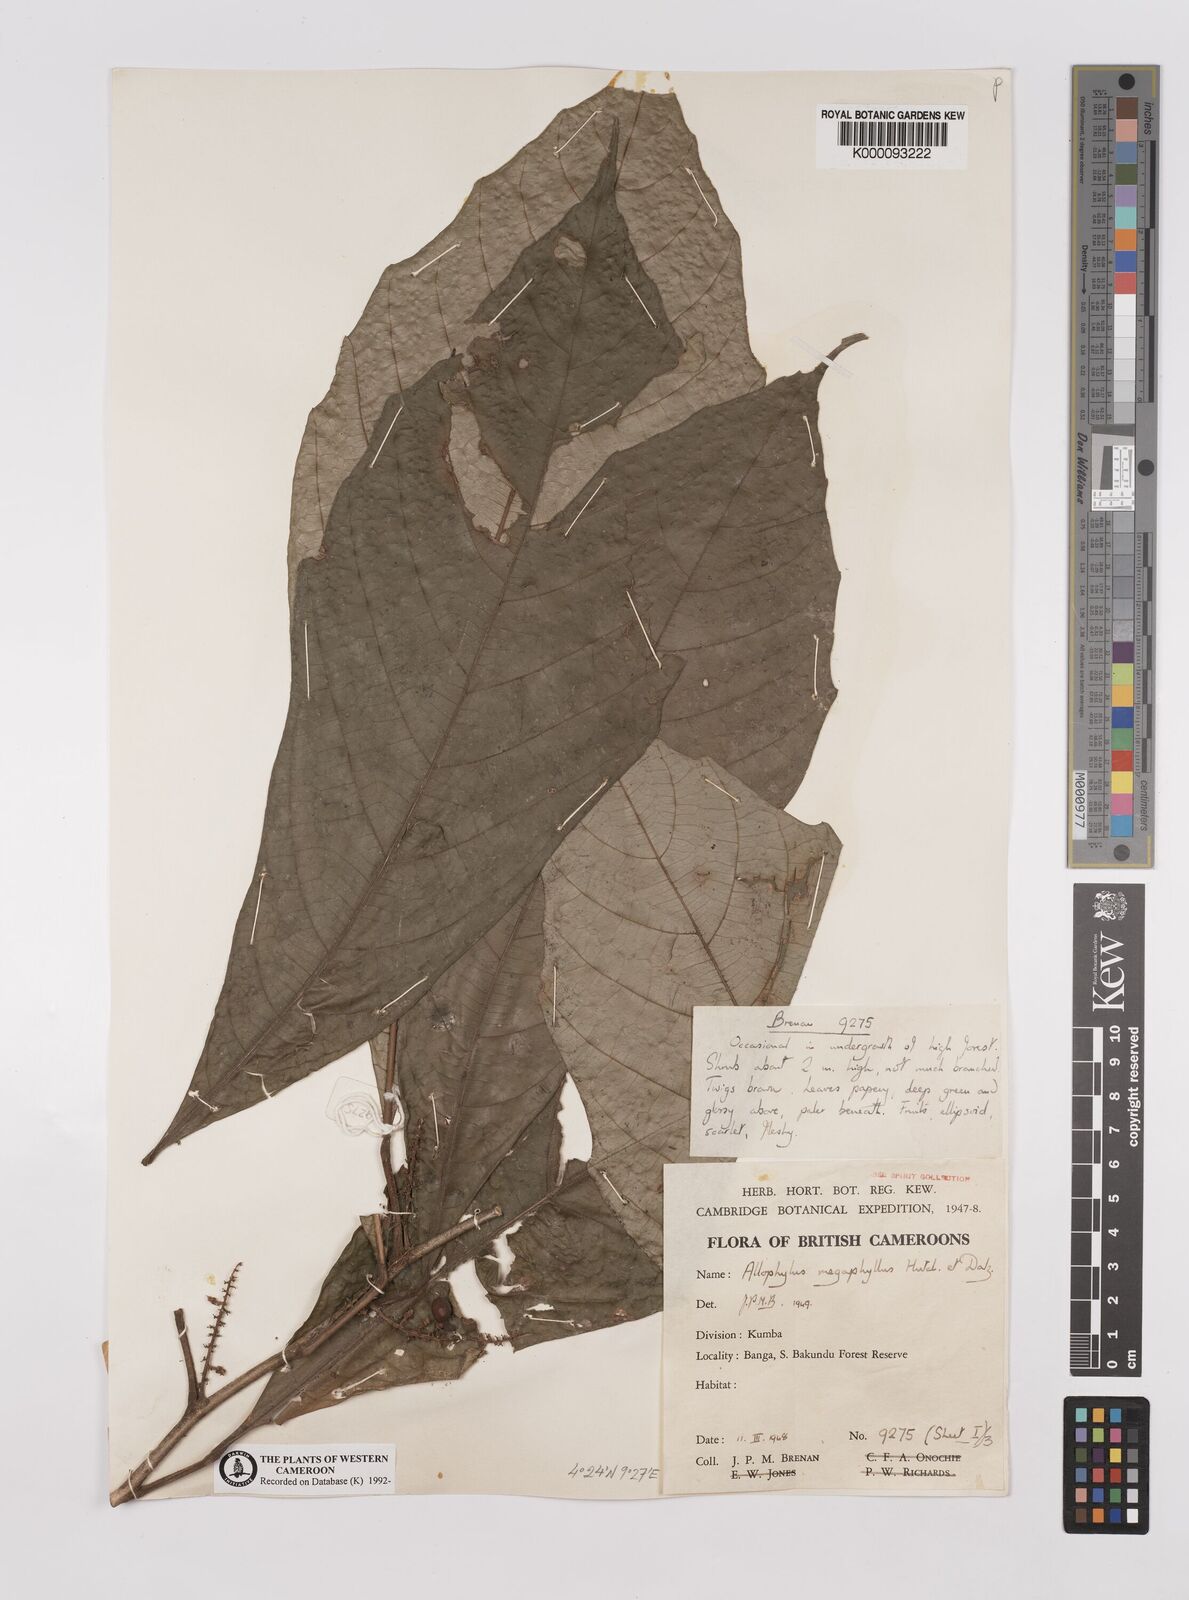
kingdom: Plantae
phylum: Tracheophyta
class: Magnoliopsida
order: Sapindales
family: Sapindaceae
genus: Allophylus
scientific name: Allophylus megaphyllus
